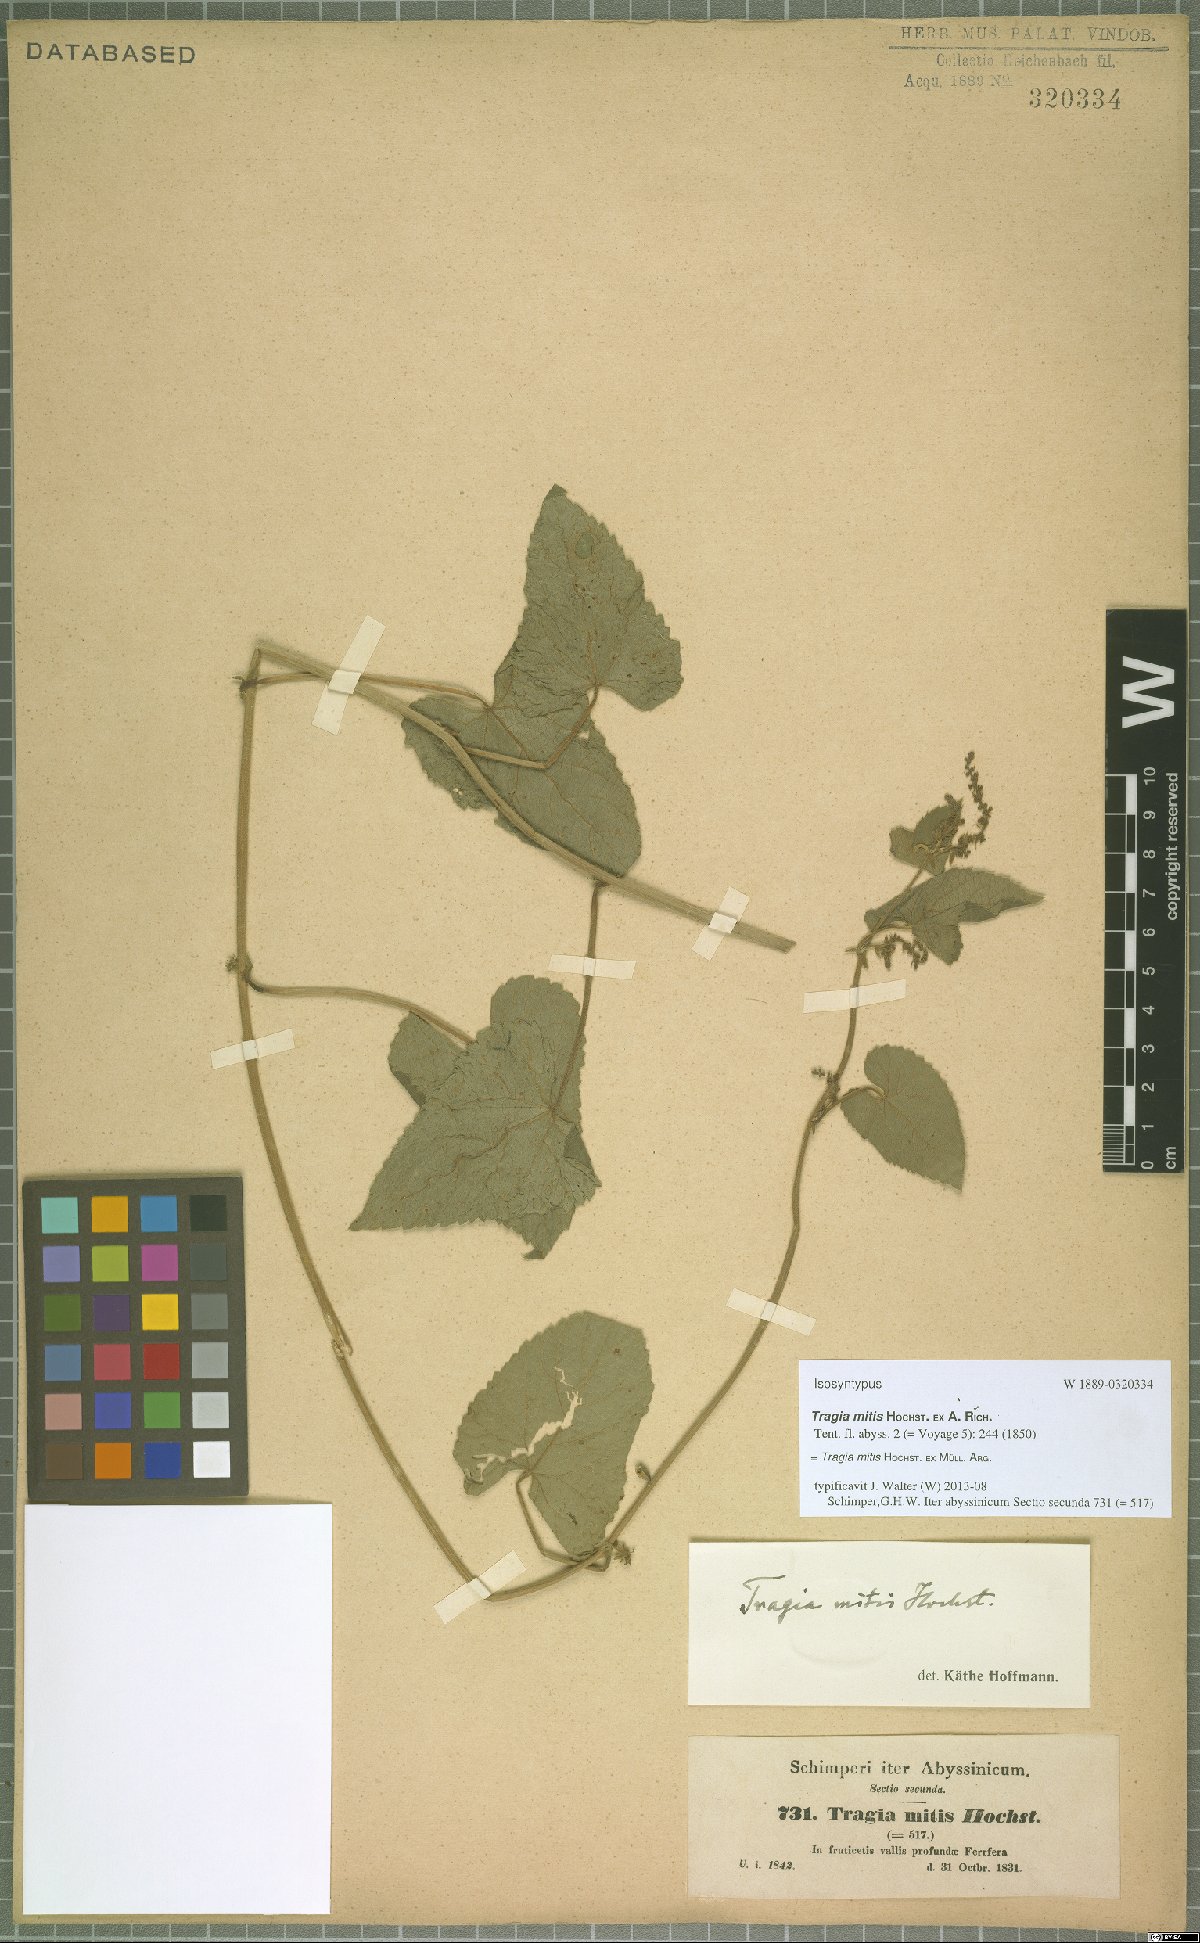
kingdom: Plantae
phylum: Tracheophyta
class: Magnoliopsida
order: Malpighiales
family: Euphorbiaceae
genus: Tragia
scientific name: Tragia mitis
